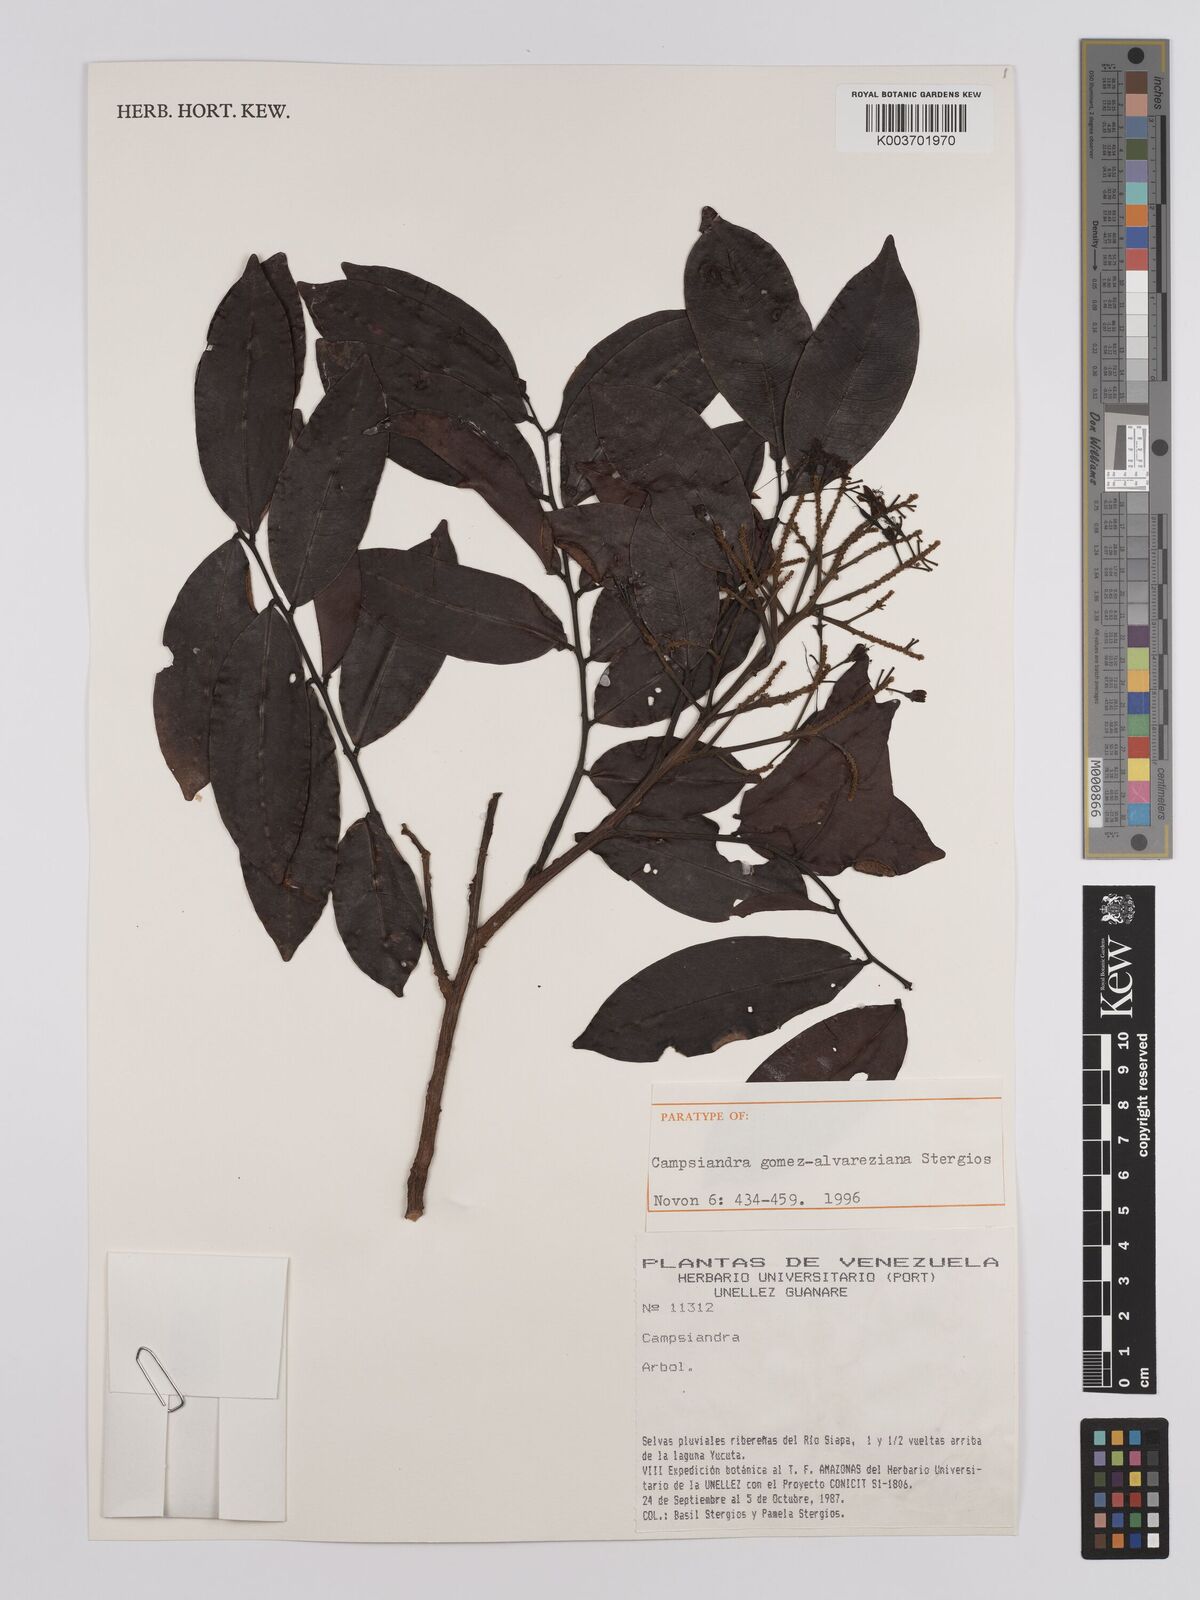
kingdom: Plantae
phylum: Tracheophyta
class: Magnoliopsida
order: Fabales
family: Fabaceae
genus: Campsiandra
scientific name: Campsiandra gomez-alvareziana
